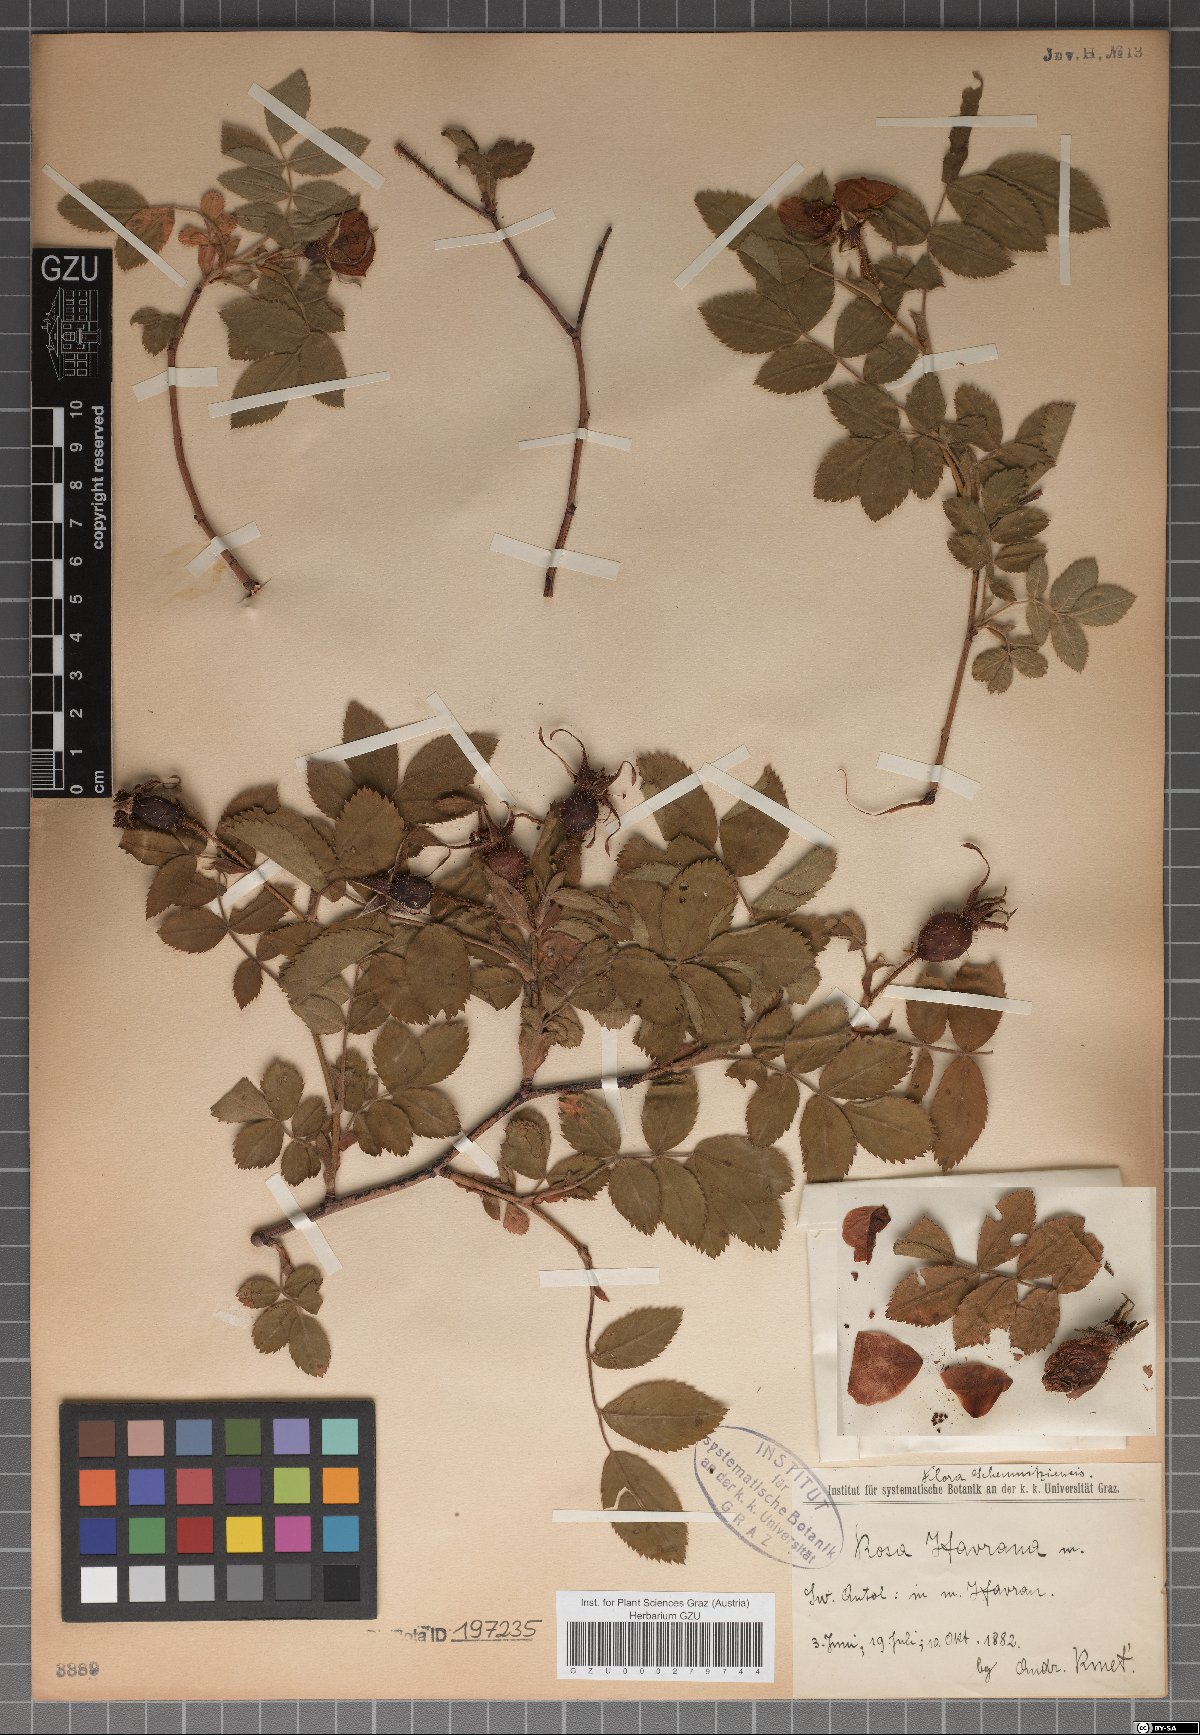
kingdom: Plantae
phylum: Tracheophyta
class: Magnoliopsida
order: Rosales
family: Rosaceae
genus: Rosa
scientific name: Rosa pseudoscabriuscula
